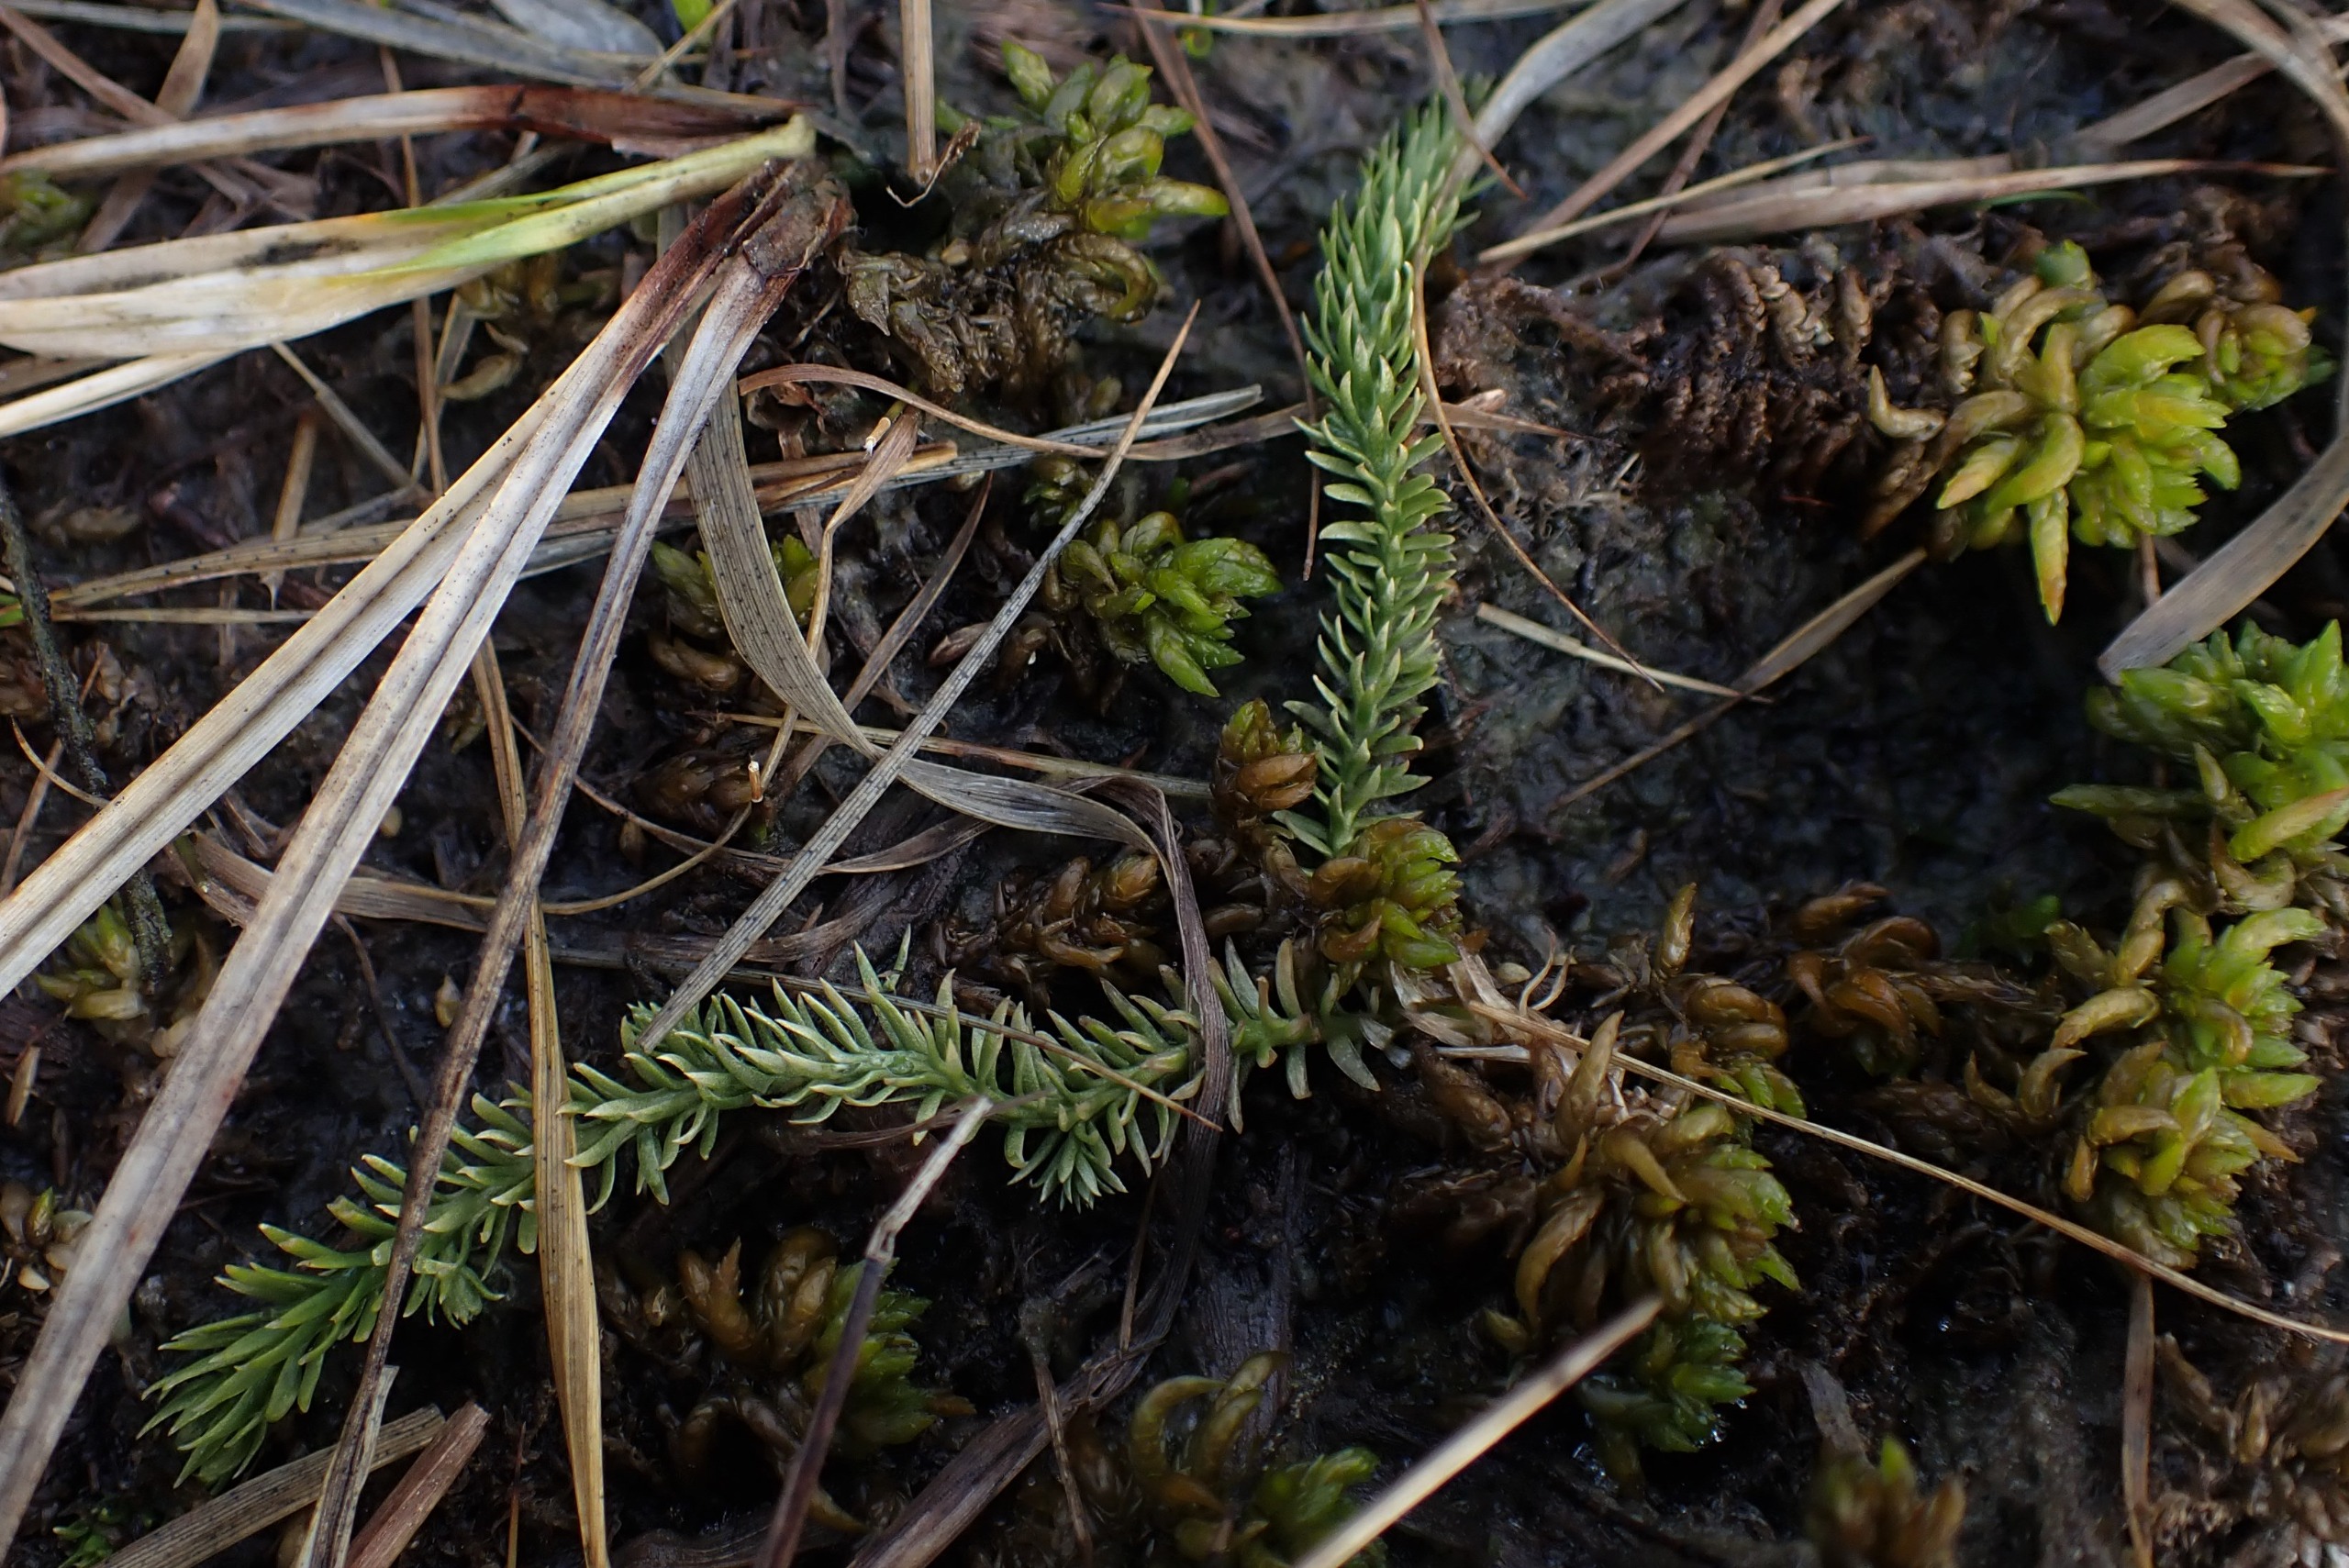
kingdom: Plantae
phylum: Tracheophyta
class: Lycopodiopsida
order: Lycopodiales
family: Lycopodiaceae
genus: Lycopodiella
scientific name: Lycopodiella inundata
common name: Liden ulvefod
